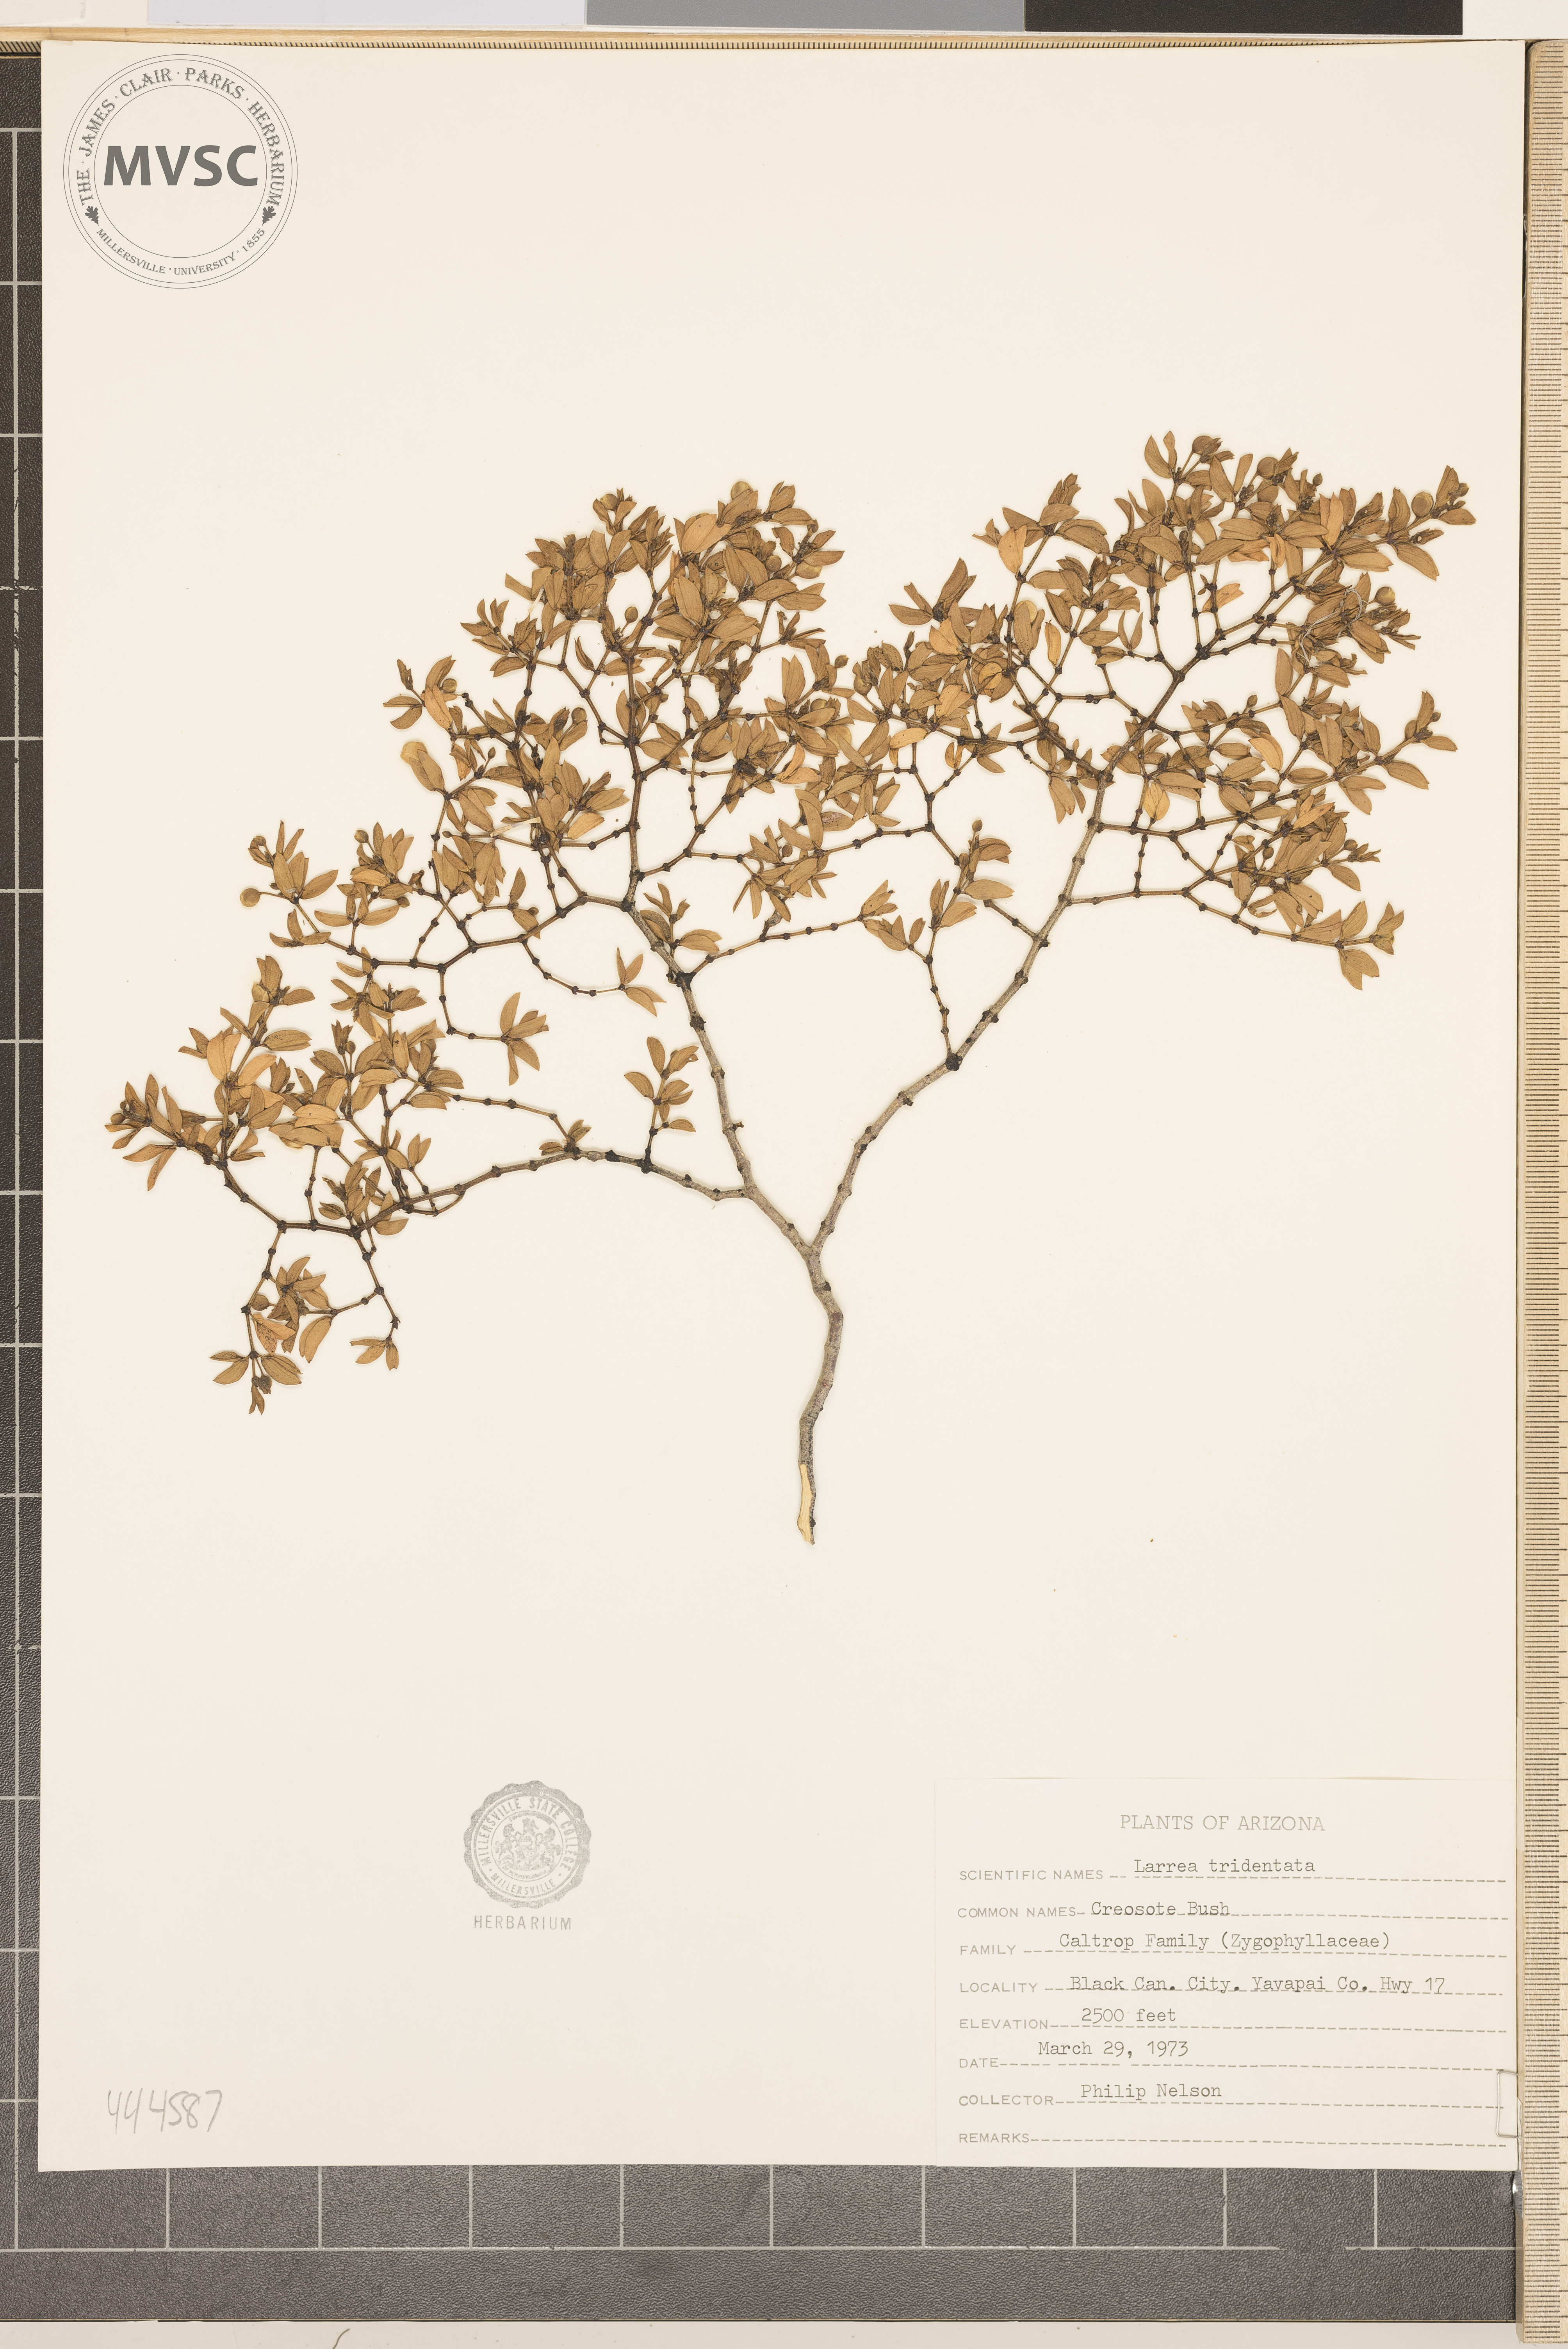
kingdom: Plantae
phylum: Tracheophyta
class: Magnoliopsida
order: Zygophyllales
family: Zygophyllaceae
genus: Larrea
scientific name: Larrea tridentata
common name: Creosote bush
